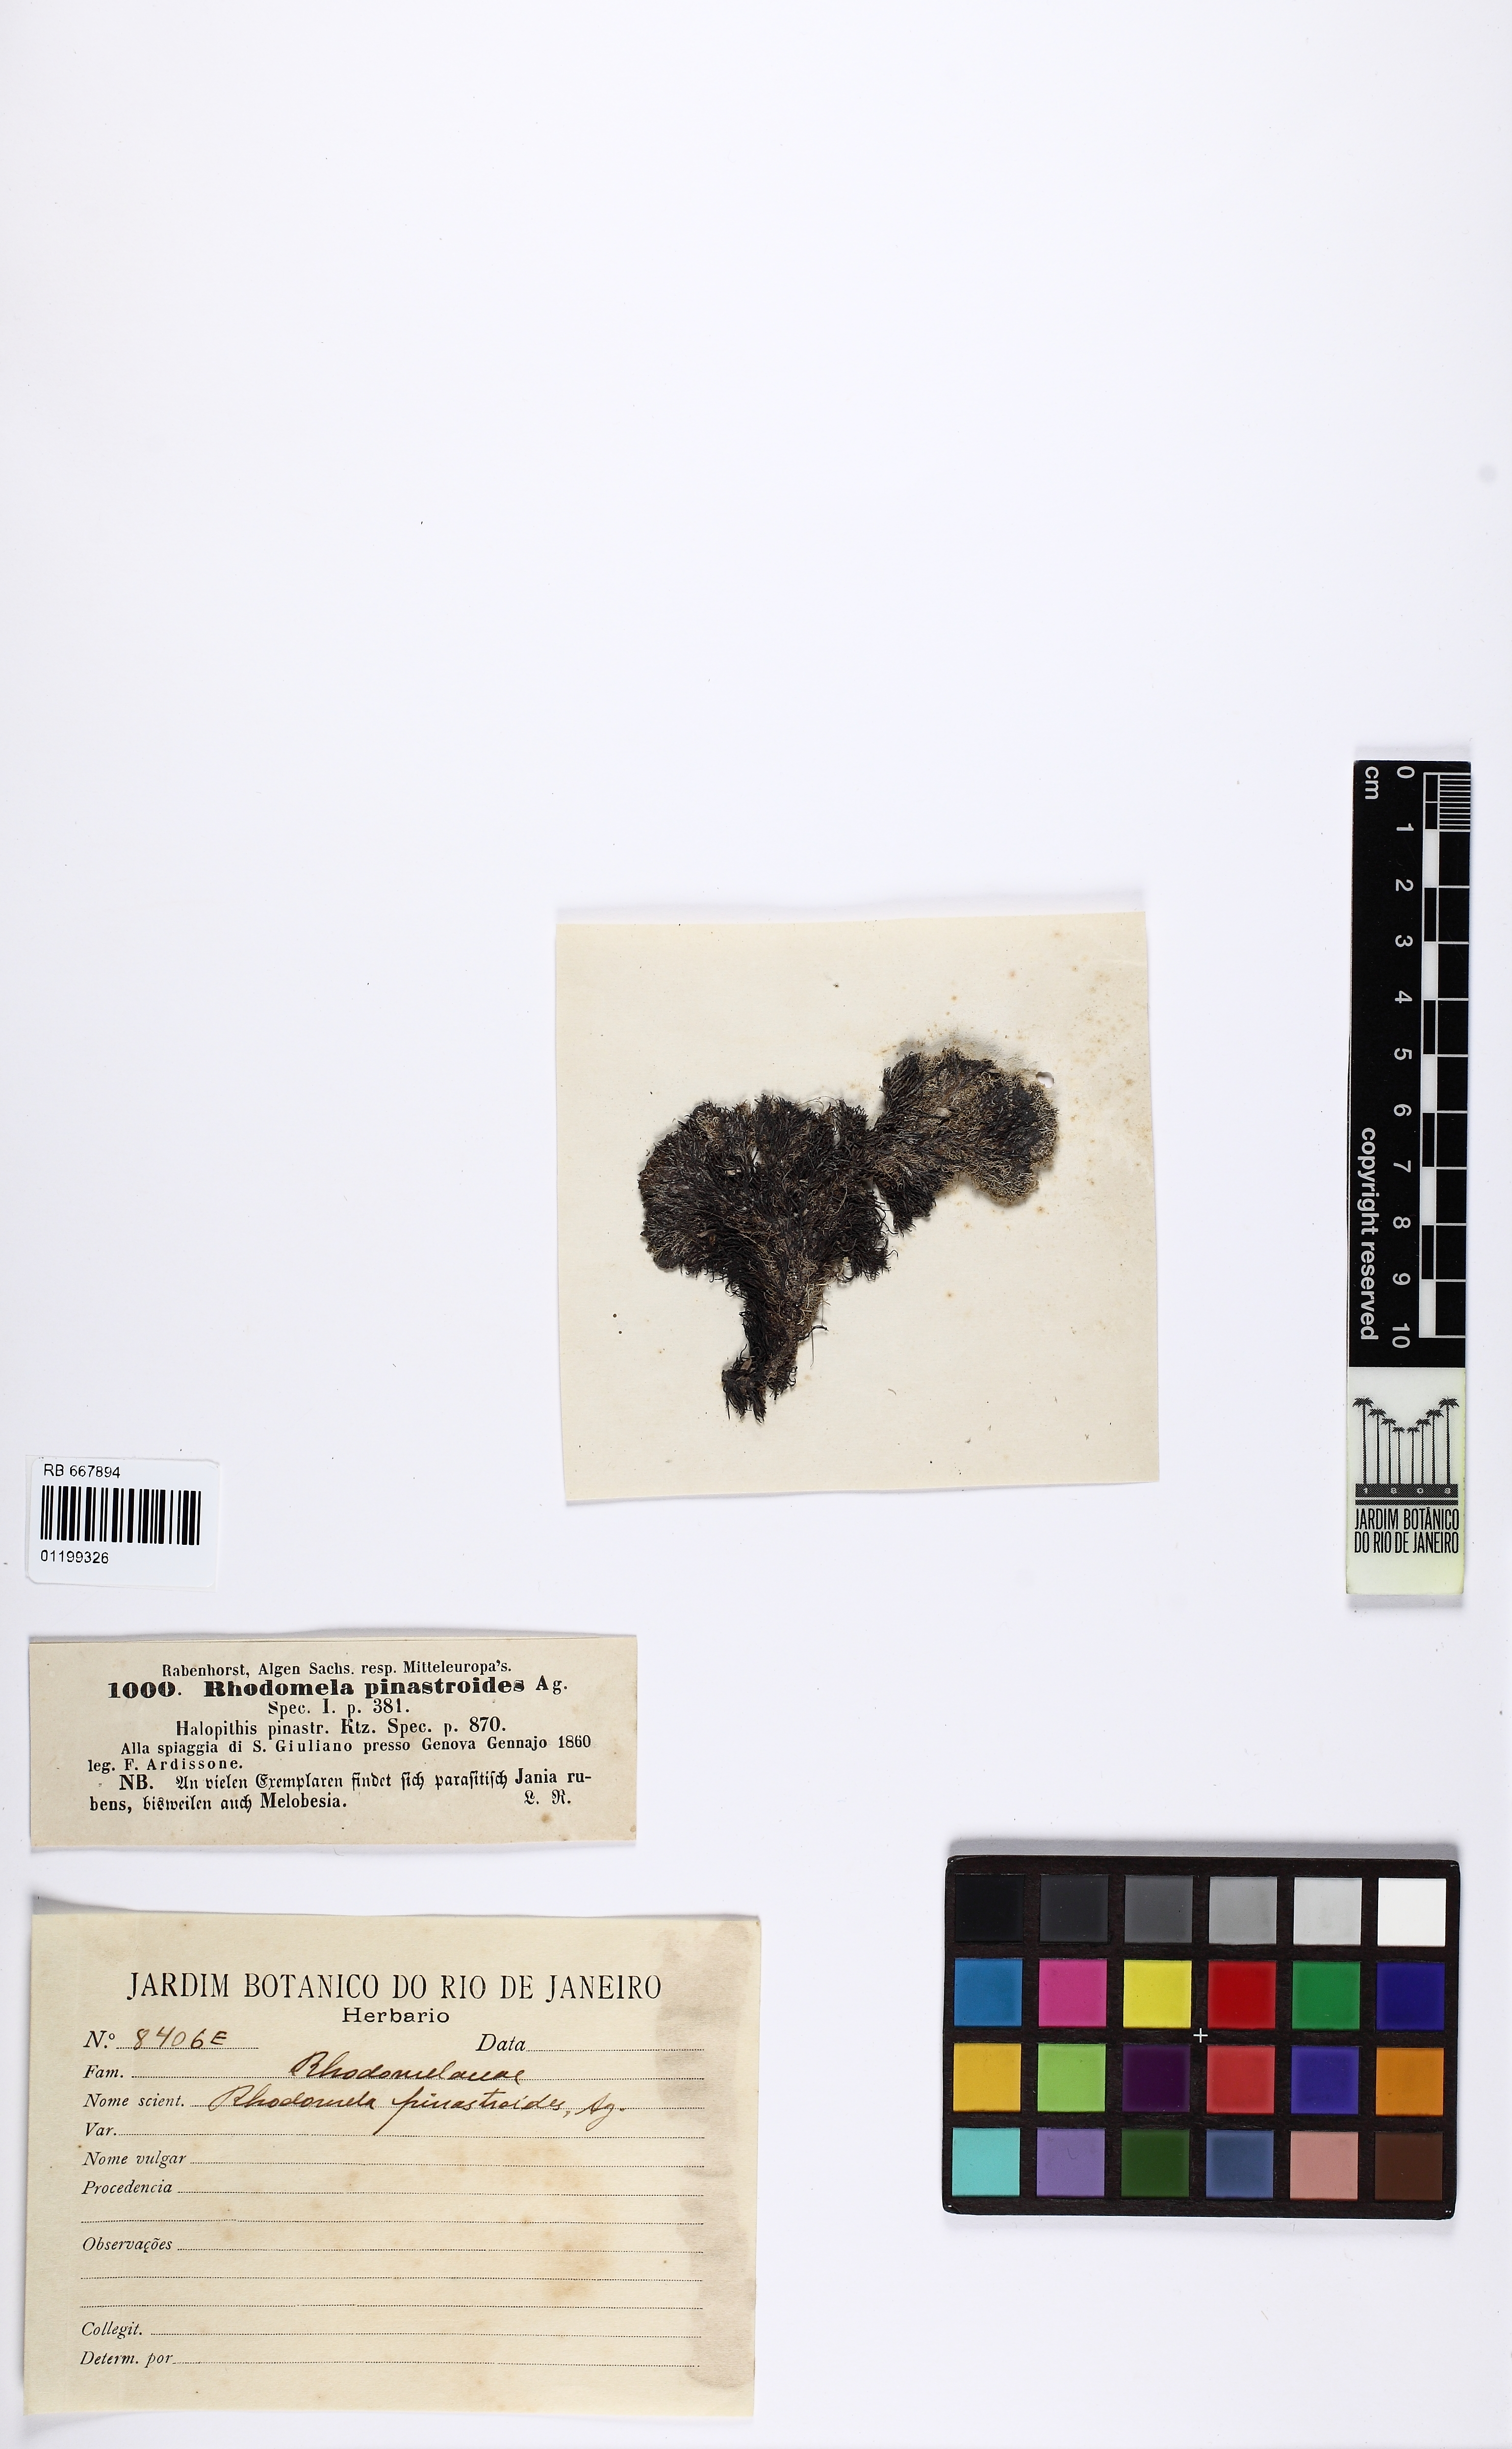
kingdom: Plantae
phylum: Rhodophyta
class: Florideophyceae
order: Ceramiales
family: Rhodomelaceae
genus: Halopithys
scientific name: Halopithys incurvus
